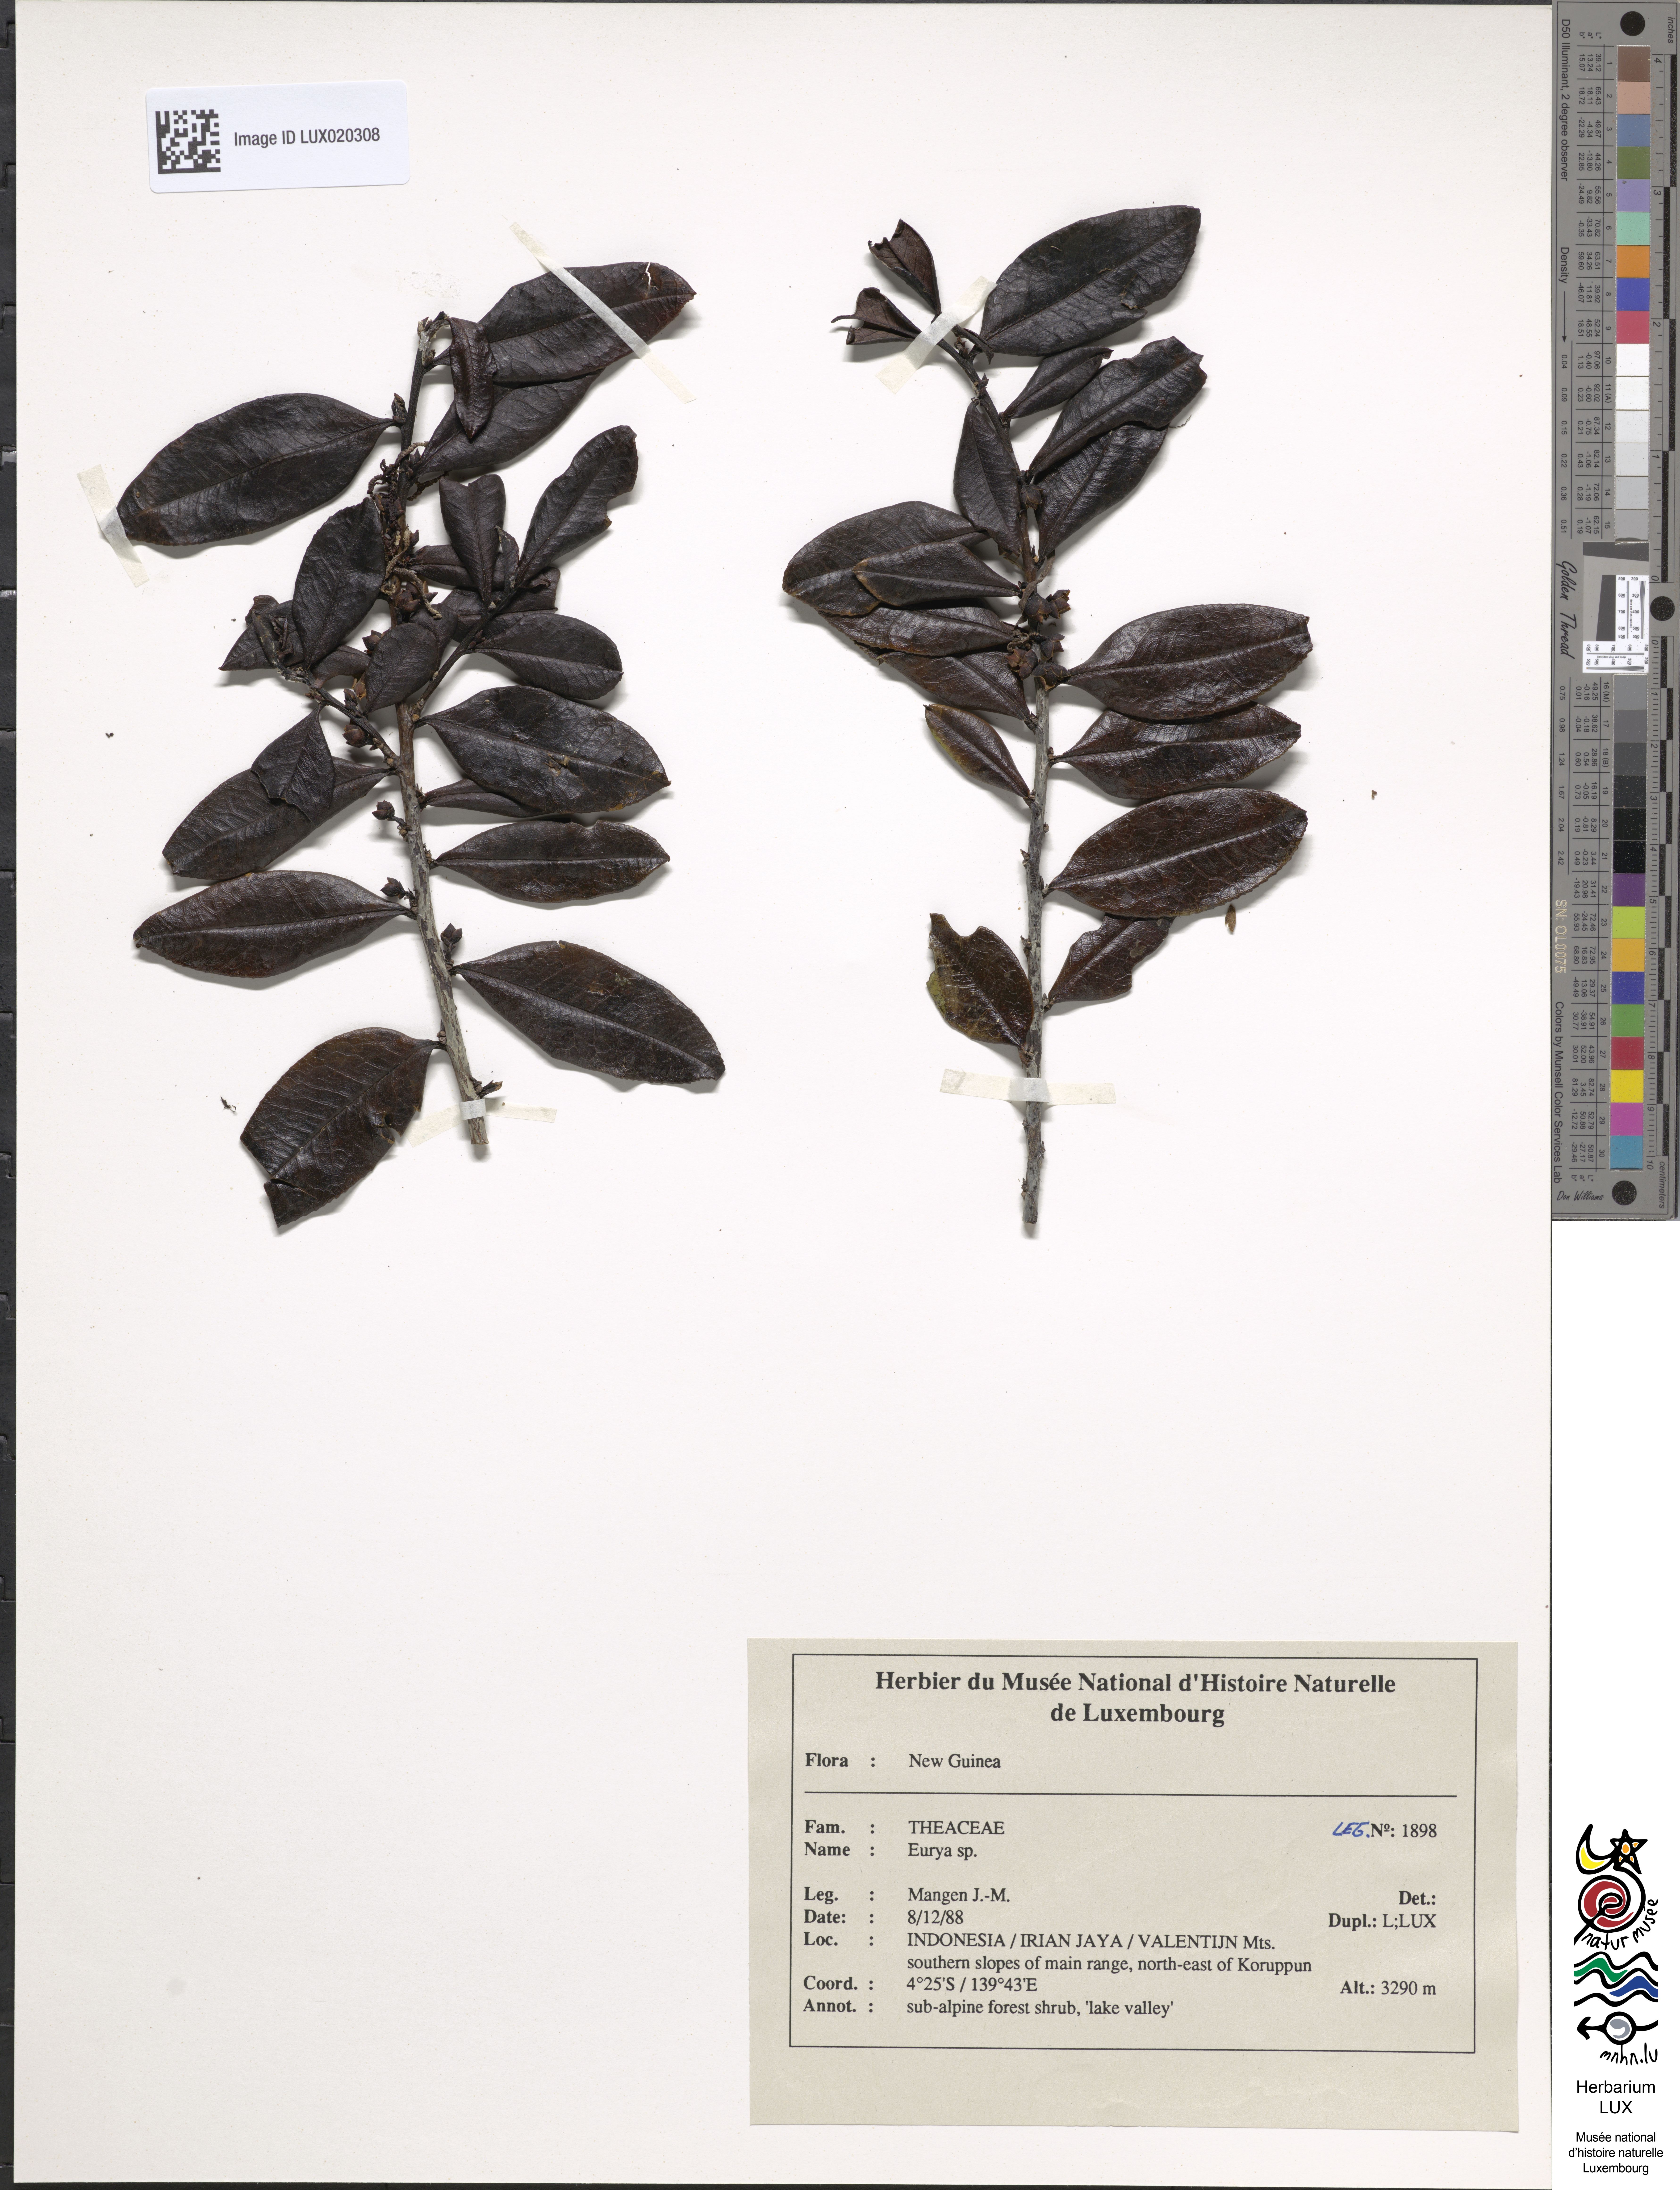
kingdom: Plantae
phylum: Tracheophyta
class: Magnoliopsida
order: Ericales
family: Pentaphylacaceae
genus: Eurya
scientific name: Eurya
